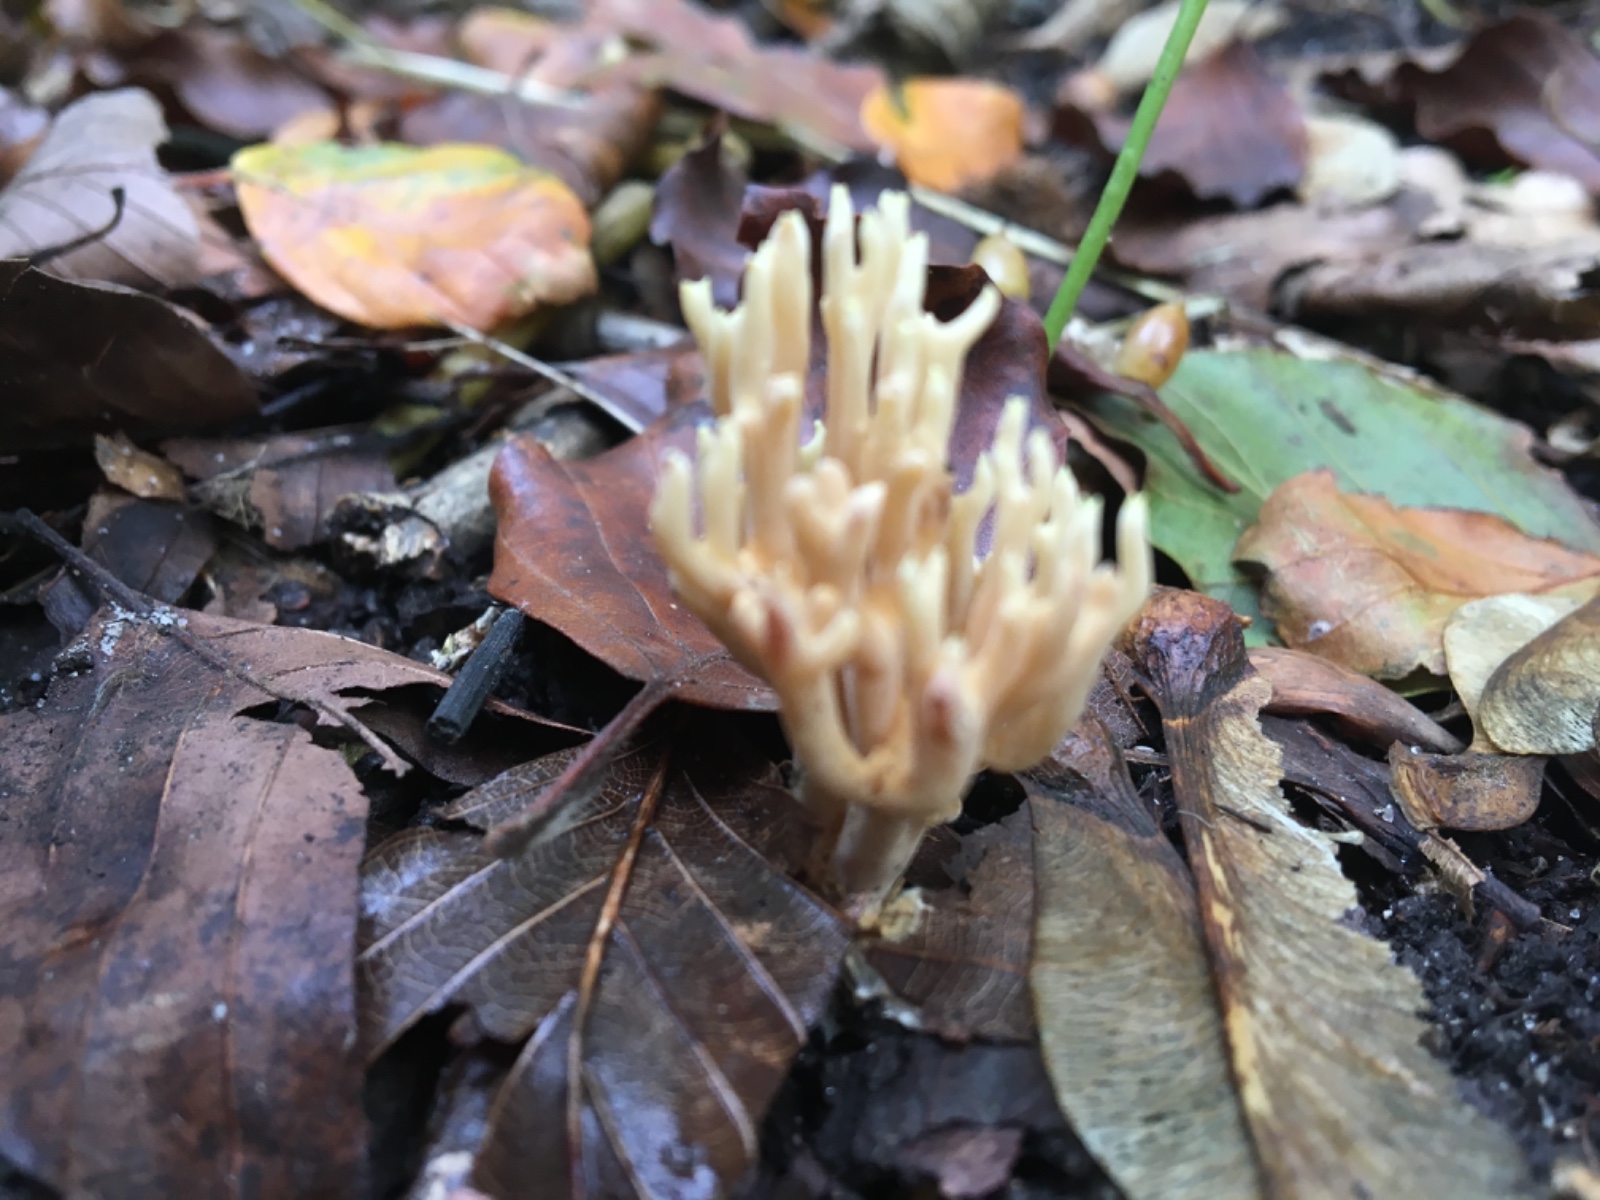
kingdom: Fungi
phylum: Basidiomycota
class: Agaricomycetes
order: Gomphales
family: Gomphaceae
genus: Ramaria
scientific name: Ramaria stricta
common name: rank koralsvamp
